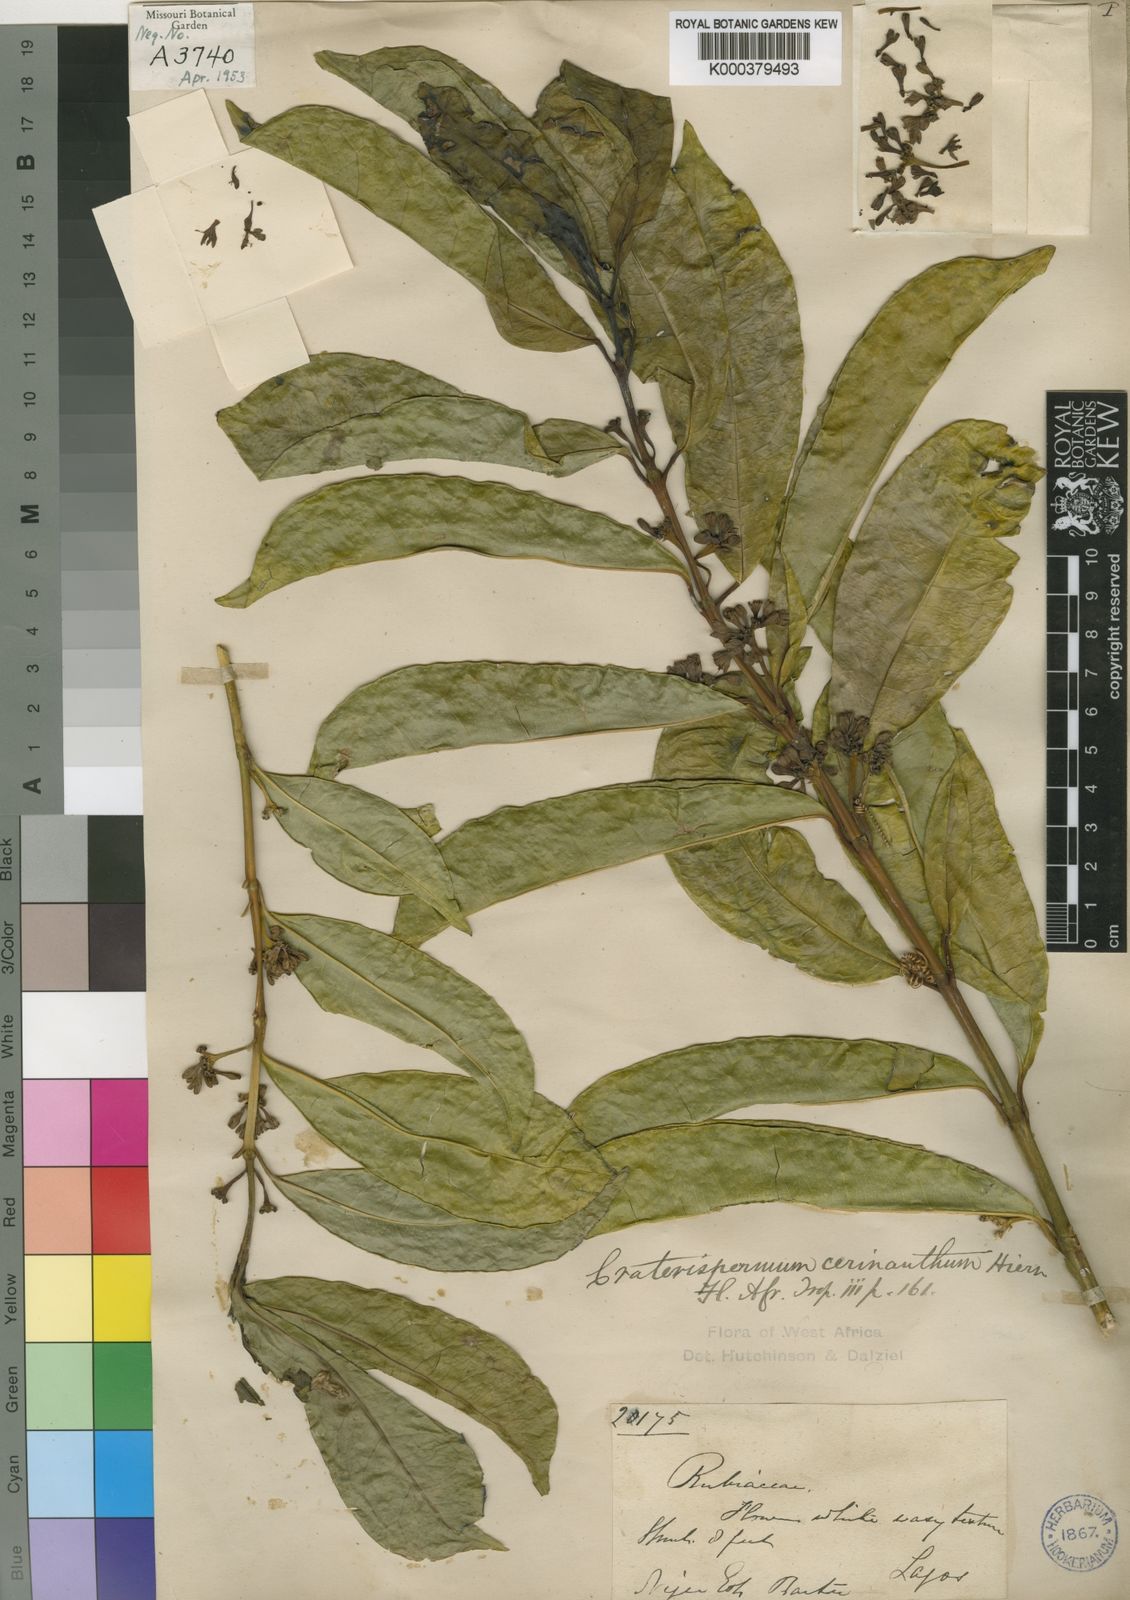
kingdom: Plantae
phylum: Tracheophyta
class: Magnoliopsida
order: Gentianales
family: Rubiaceae
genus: Craterispermum
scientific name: Craterispermum cerinanthum
